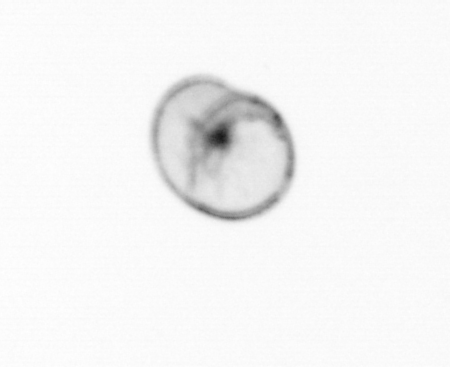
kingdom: Chromista
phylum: Myzozoa
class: Dinophyceae
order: Noctilucales
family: Noctilucaceae
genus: Noctiluca
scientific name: Noctiluca scintillans
